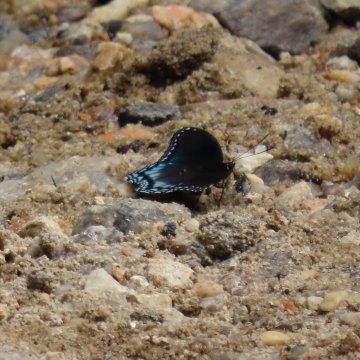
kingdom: Animalia
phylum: Arthropoda
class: Insecta
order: Lepidoptera
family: Nymphalidae
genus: Limenitis
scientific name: Limenitis arthemis
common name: Red-spotted Admiral
